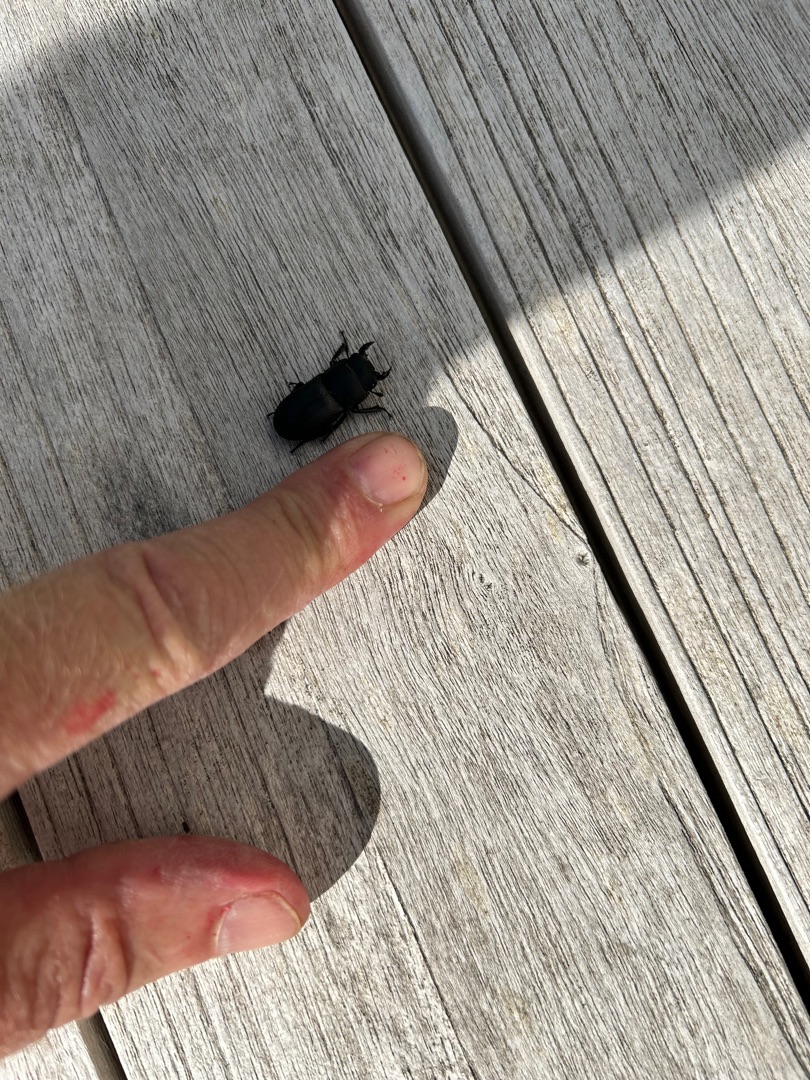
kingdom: Animalia
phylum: Arthropoda
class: Insecta
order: Coleoptera
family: Lucanidae
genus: Dorcus
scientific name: Dorcus parallelipipedus
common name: Bøghjort
